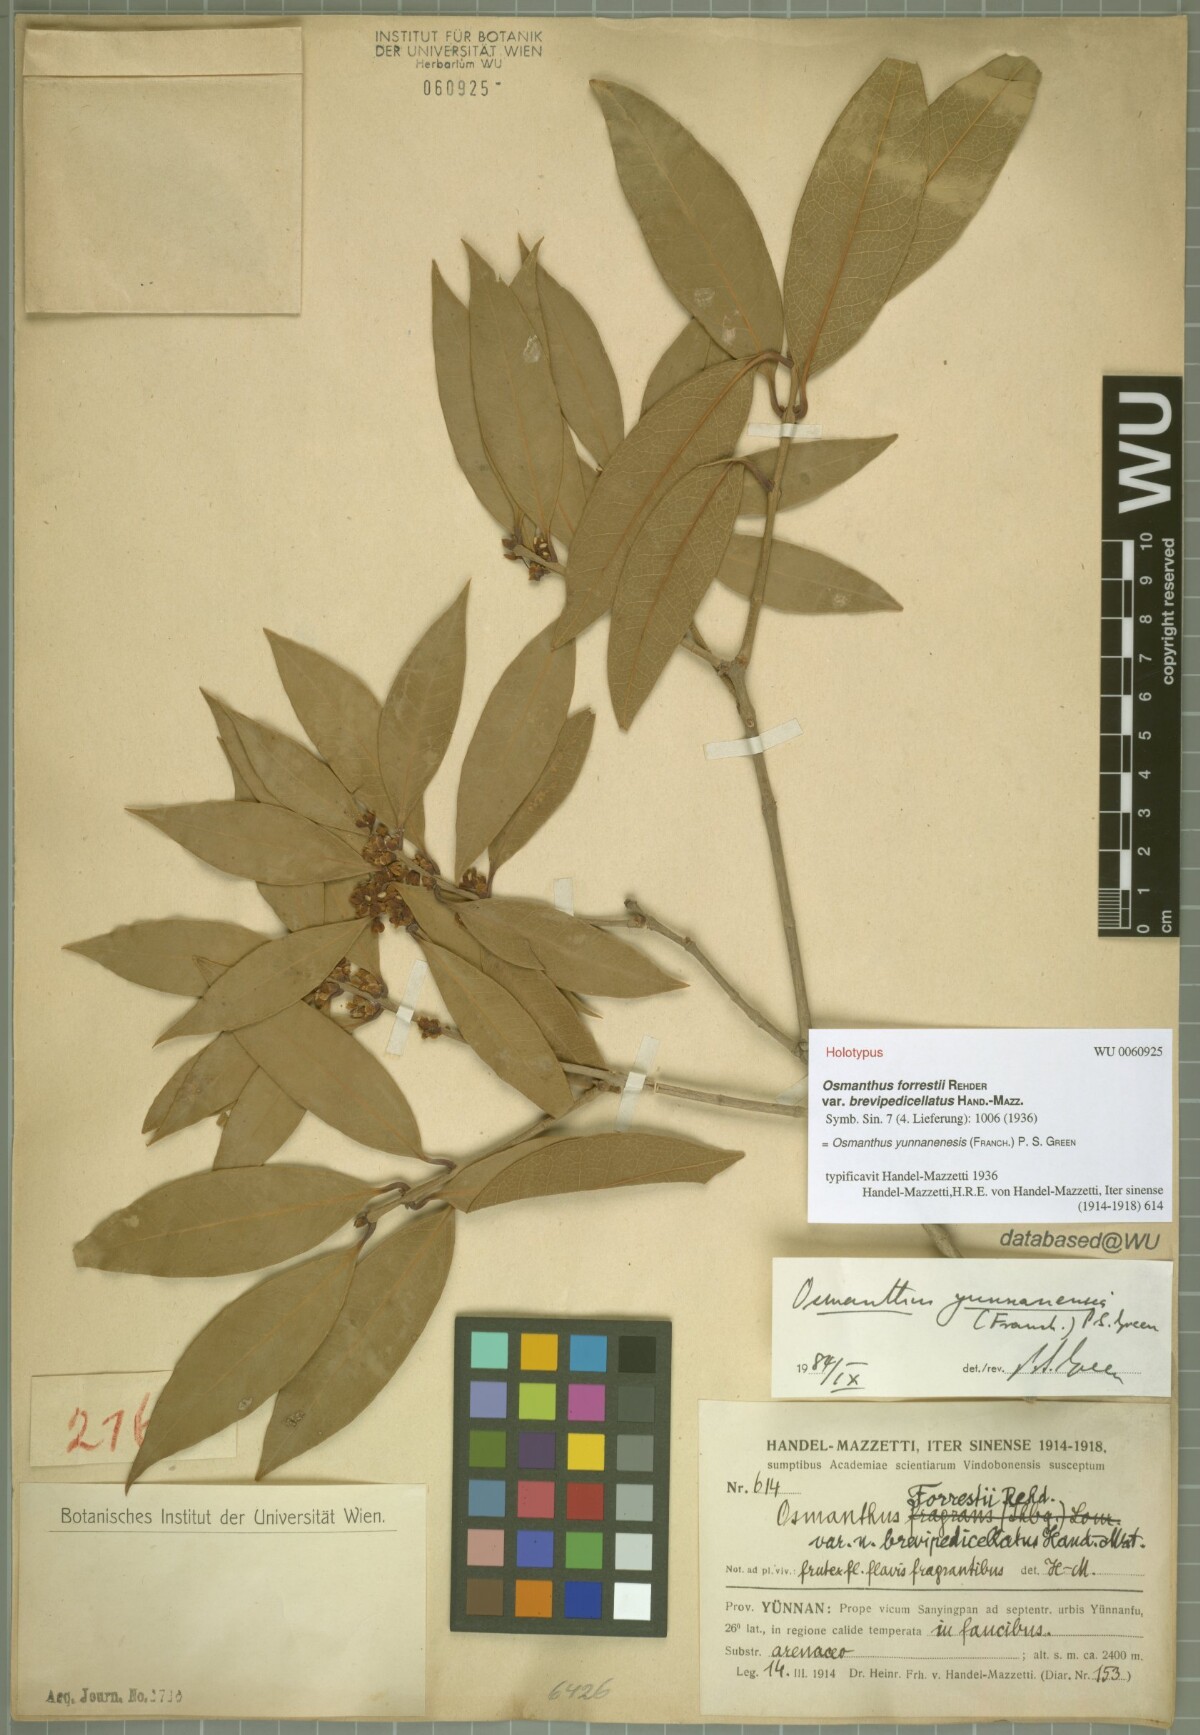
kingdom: Plantae
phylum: Tracheophyta
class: Magnoliopsida
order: Lamiales
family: Oleaceae
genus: Osmanthus
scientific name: Osmanthus yunnanensis
